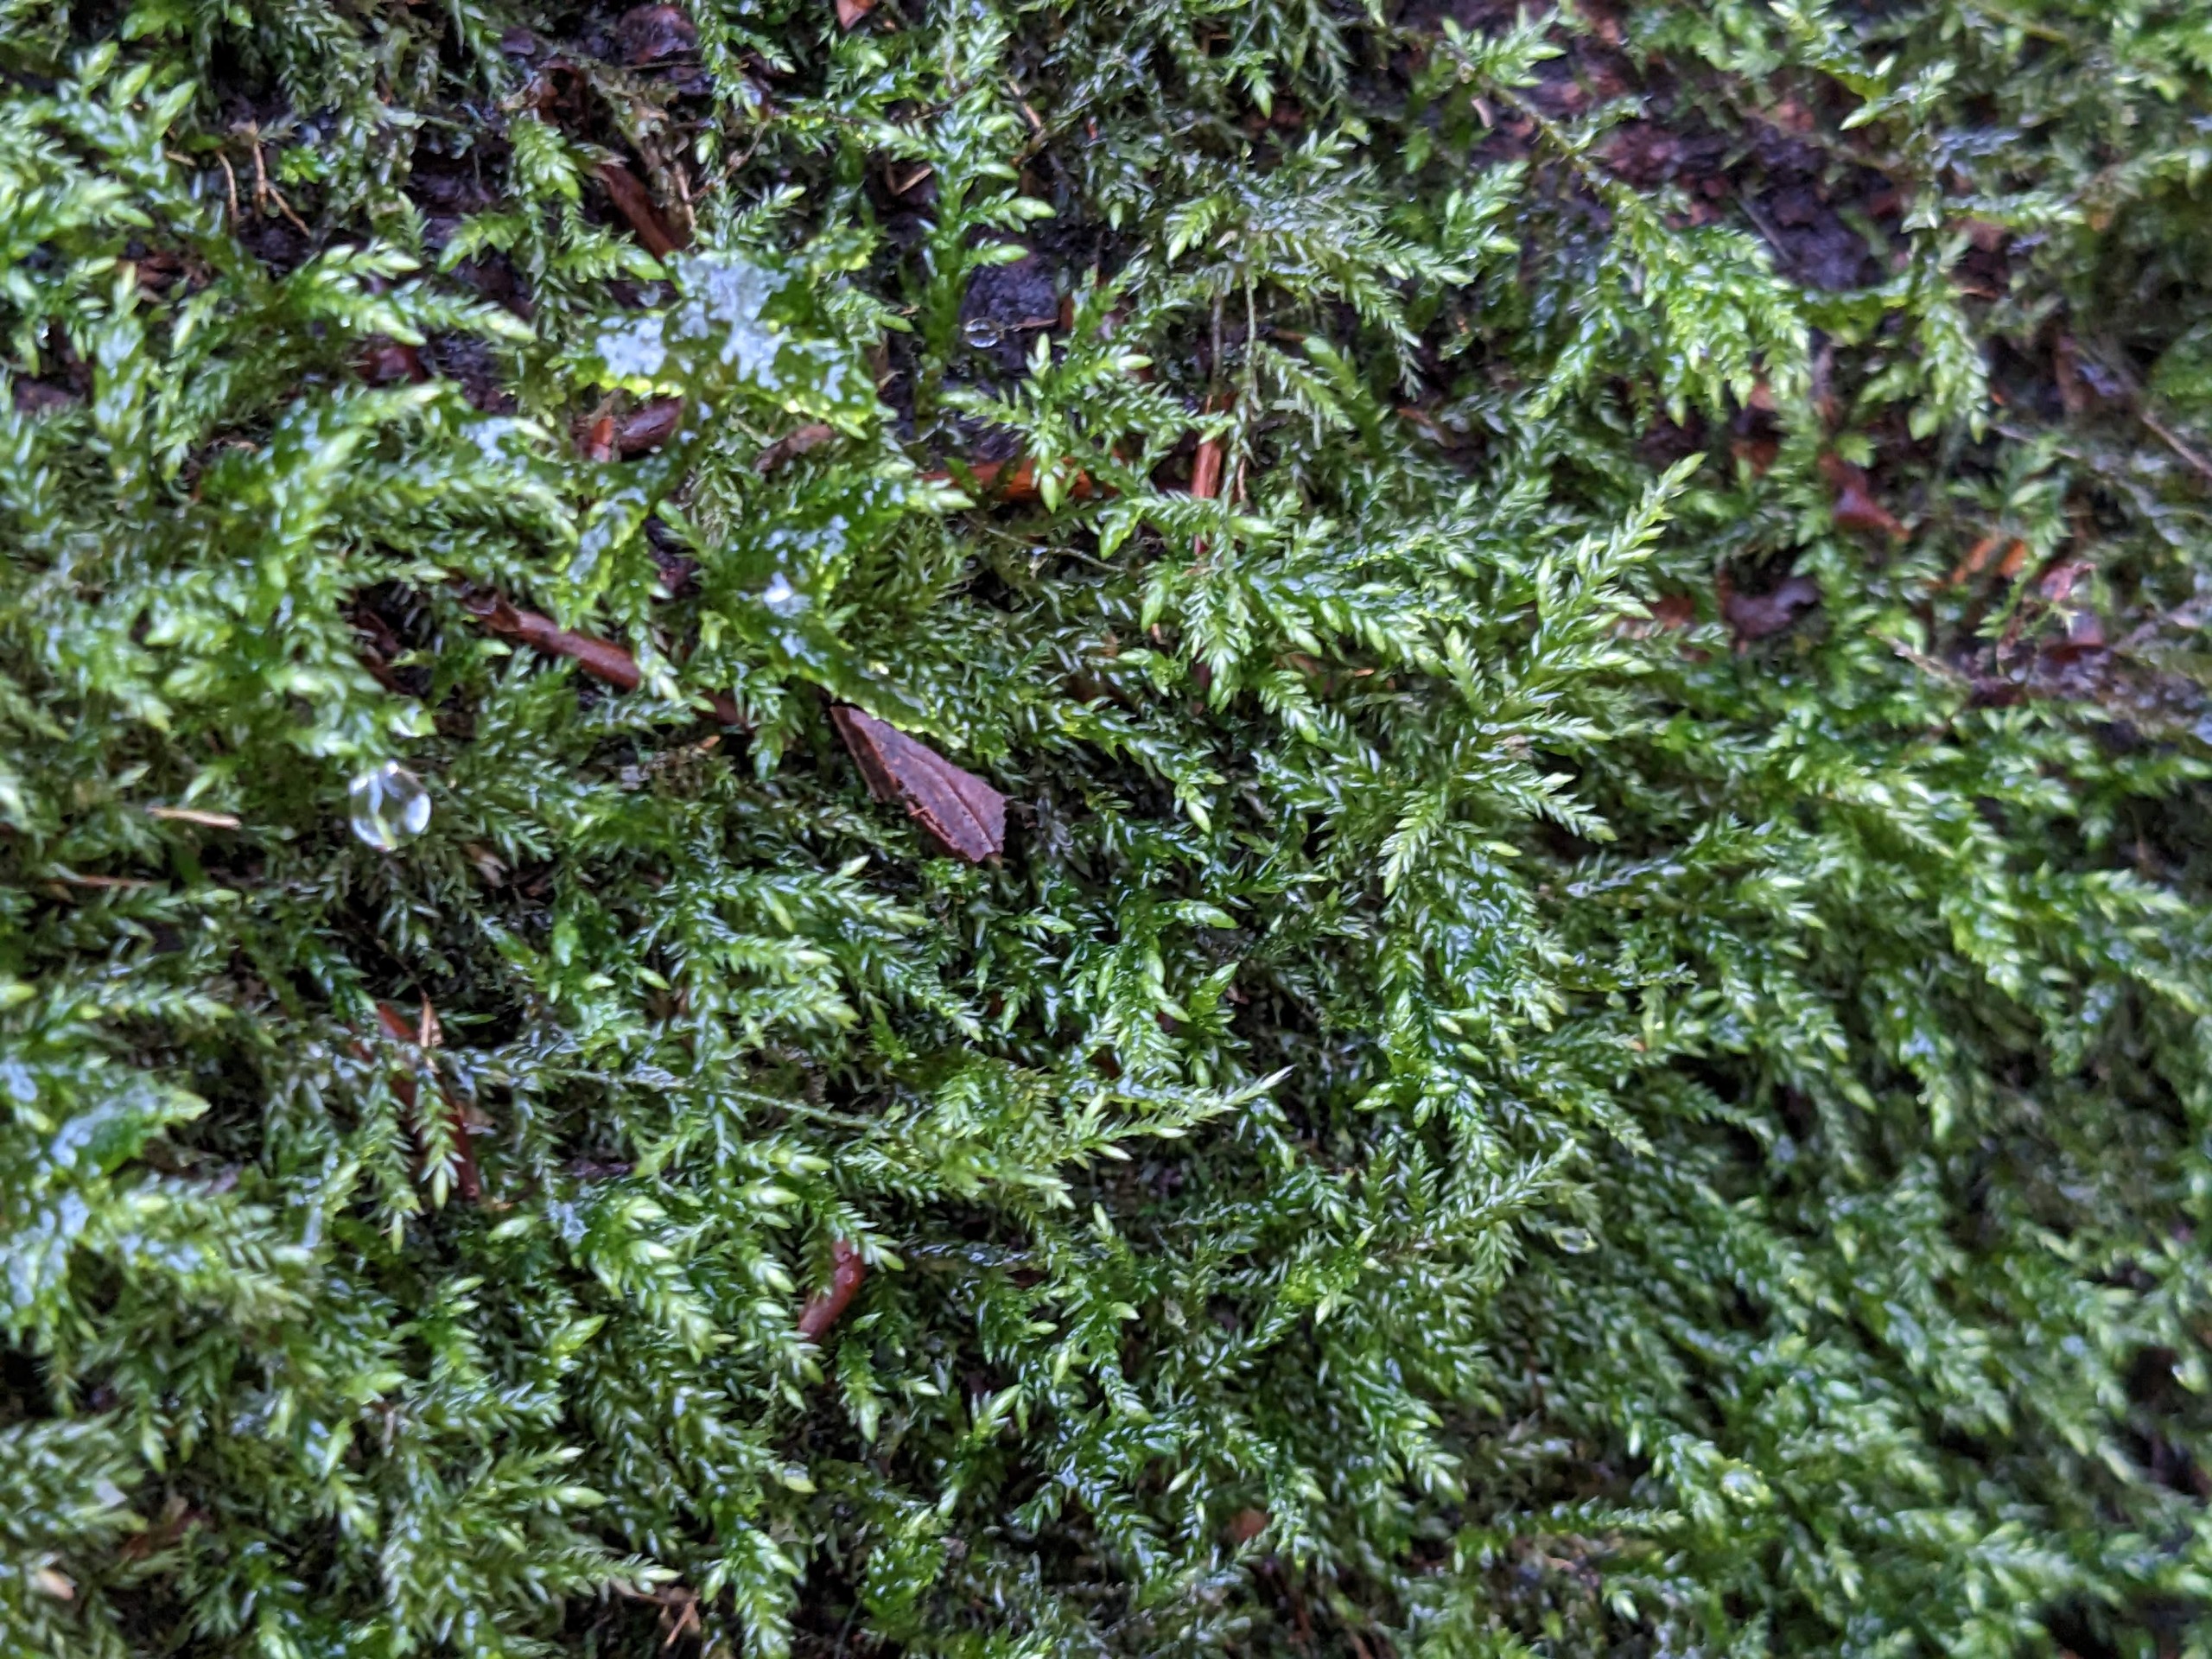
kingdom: Plantae
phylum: Bryophyta
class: Bryopsida
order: Hypnales
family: Lembophyllaceae
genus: Isothecium
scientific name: Isothecium alopecuroides
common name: Stor stammemos
